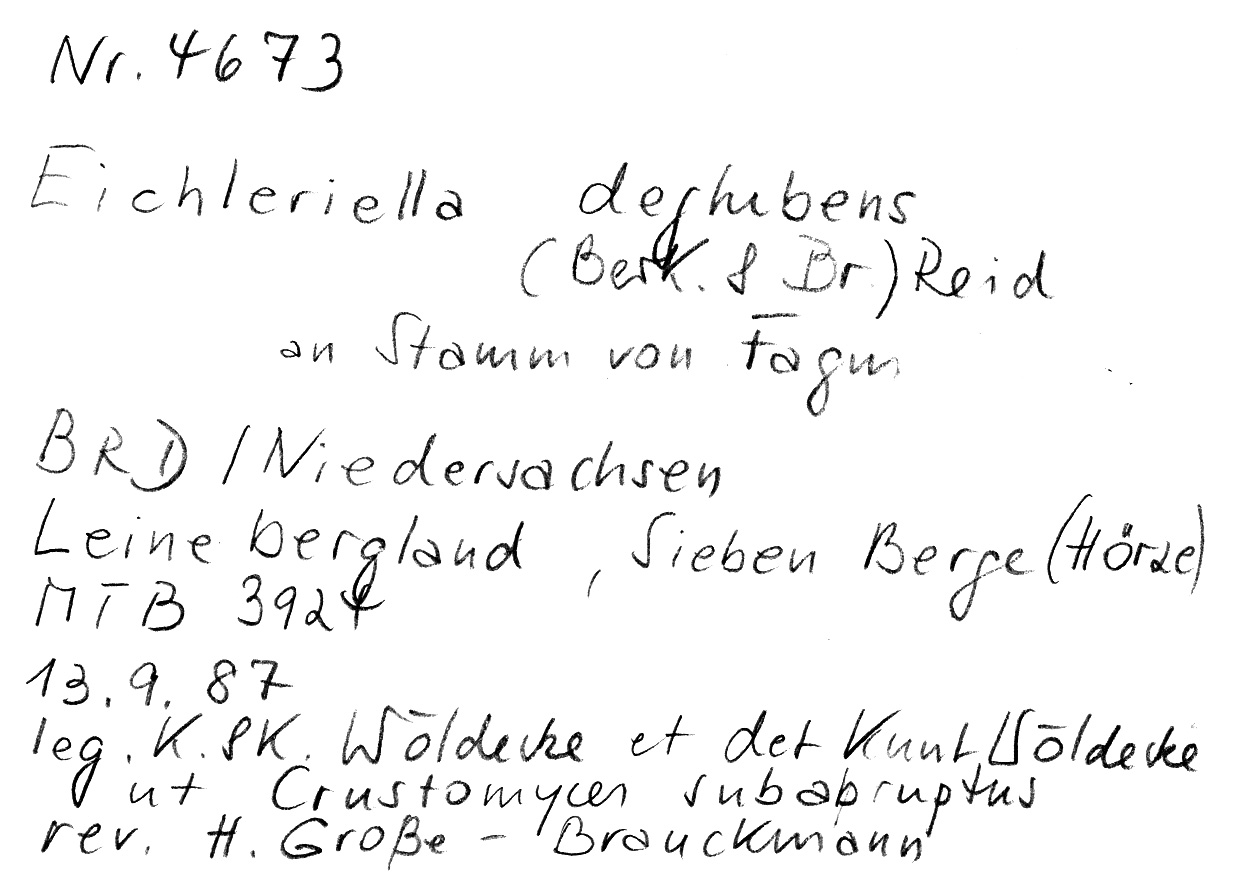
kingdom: Plantae
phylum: Tracheophyta
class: Magnoliopsida
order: Fagales
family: Fagaceae
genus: Fagus
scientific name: Fagus sylvatica
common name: Beech
